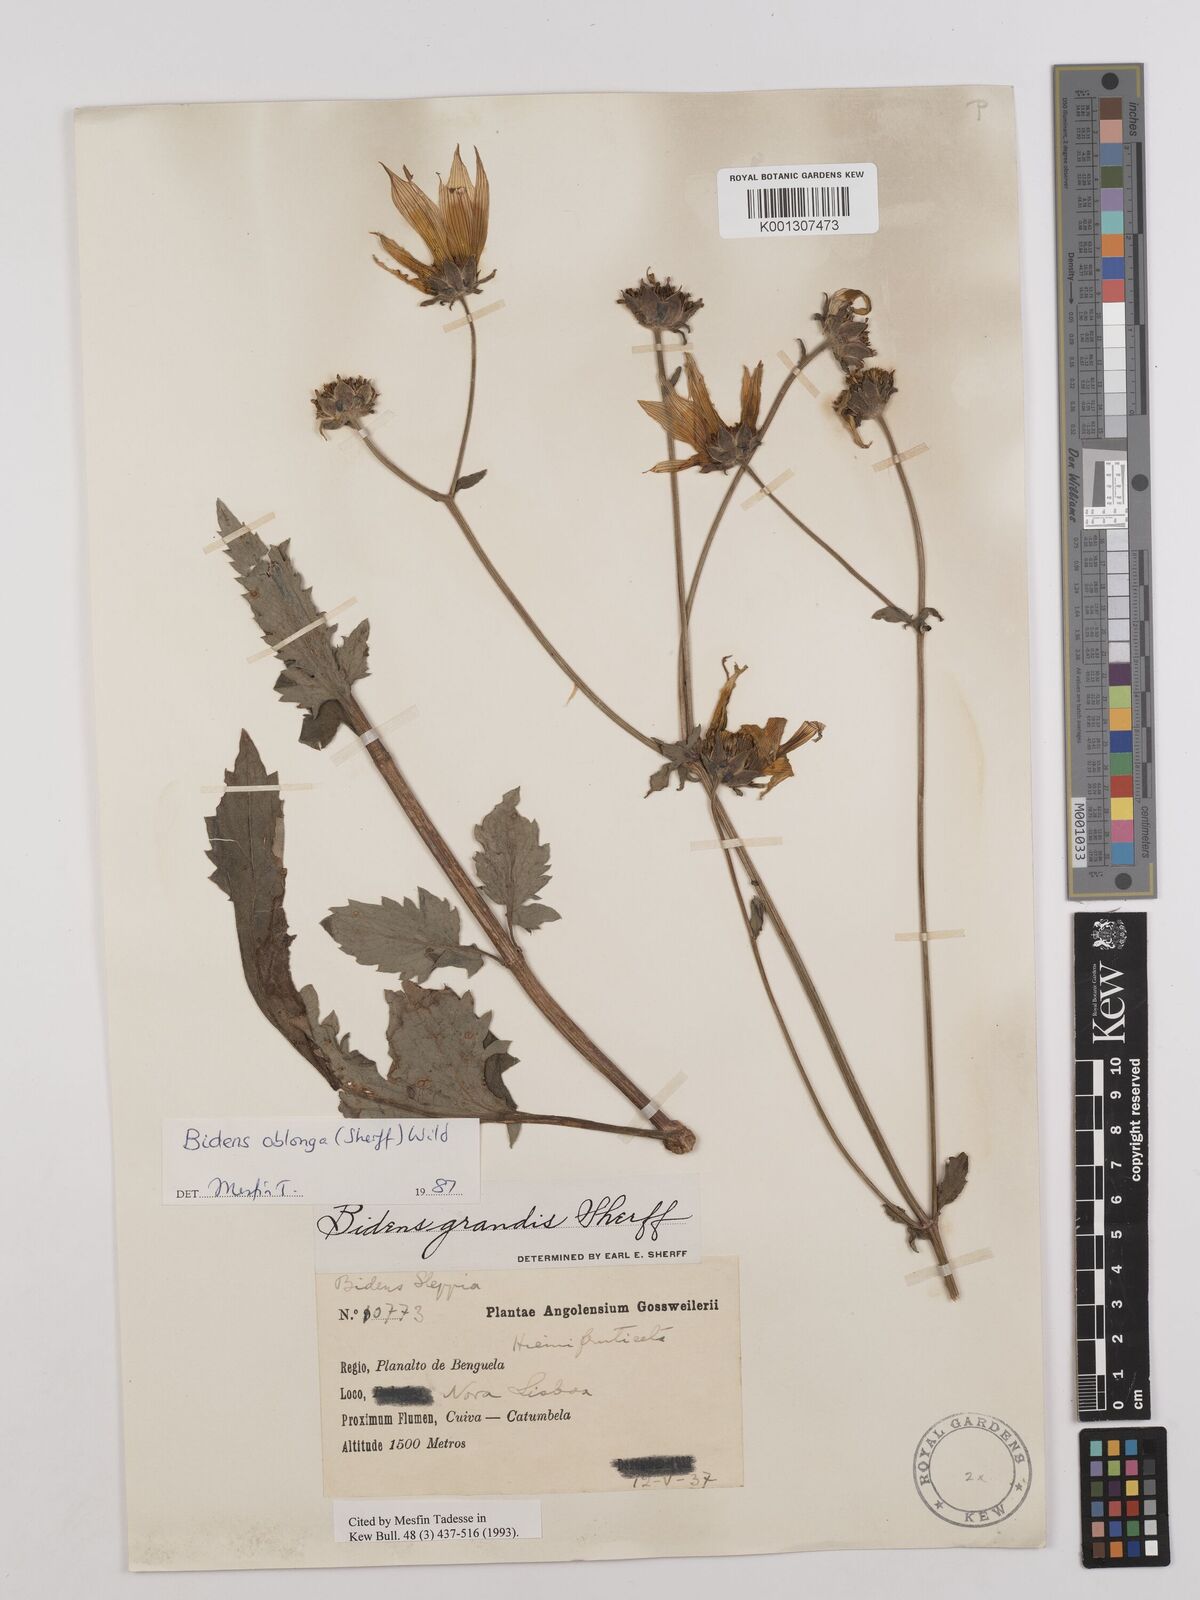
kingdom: Plantae
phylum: Tracheophyta
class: Magnoliopsida
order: Asterales
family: Asteraceae
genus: Bidens
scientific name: Bidens oblonga
